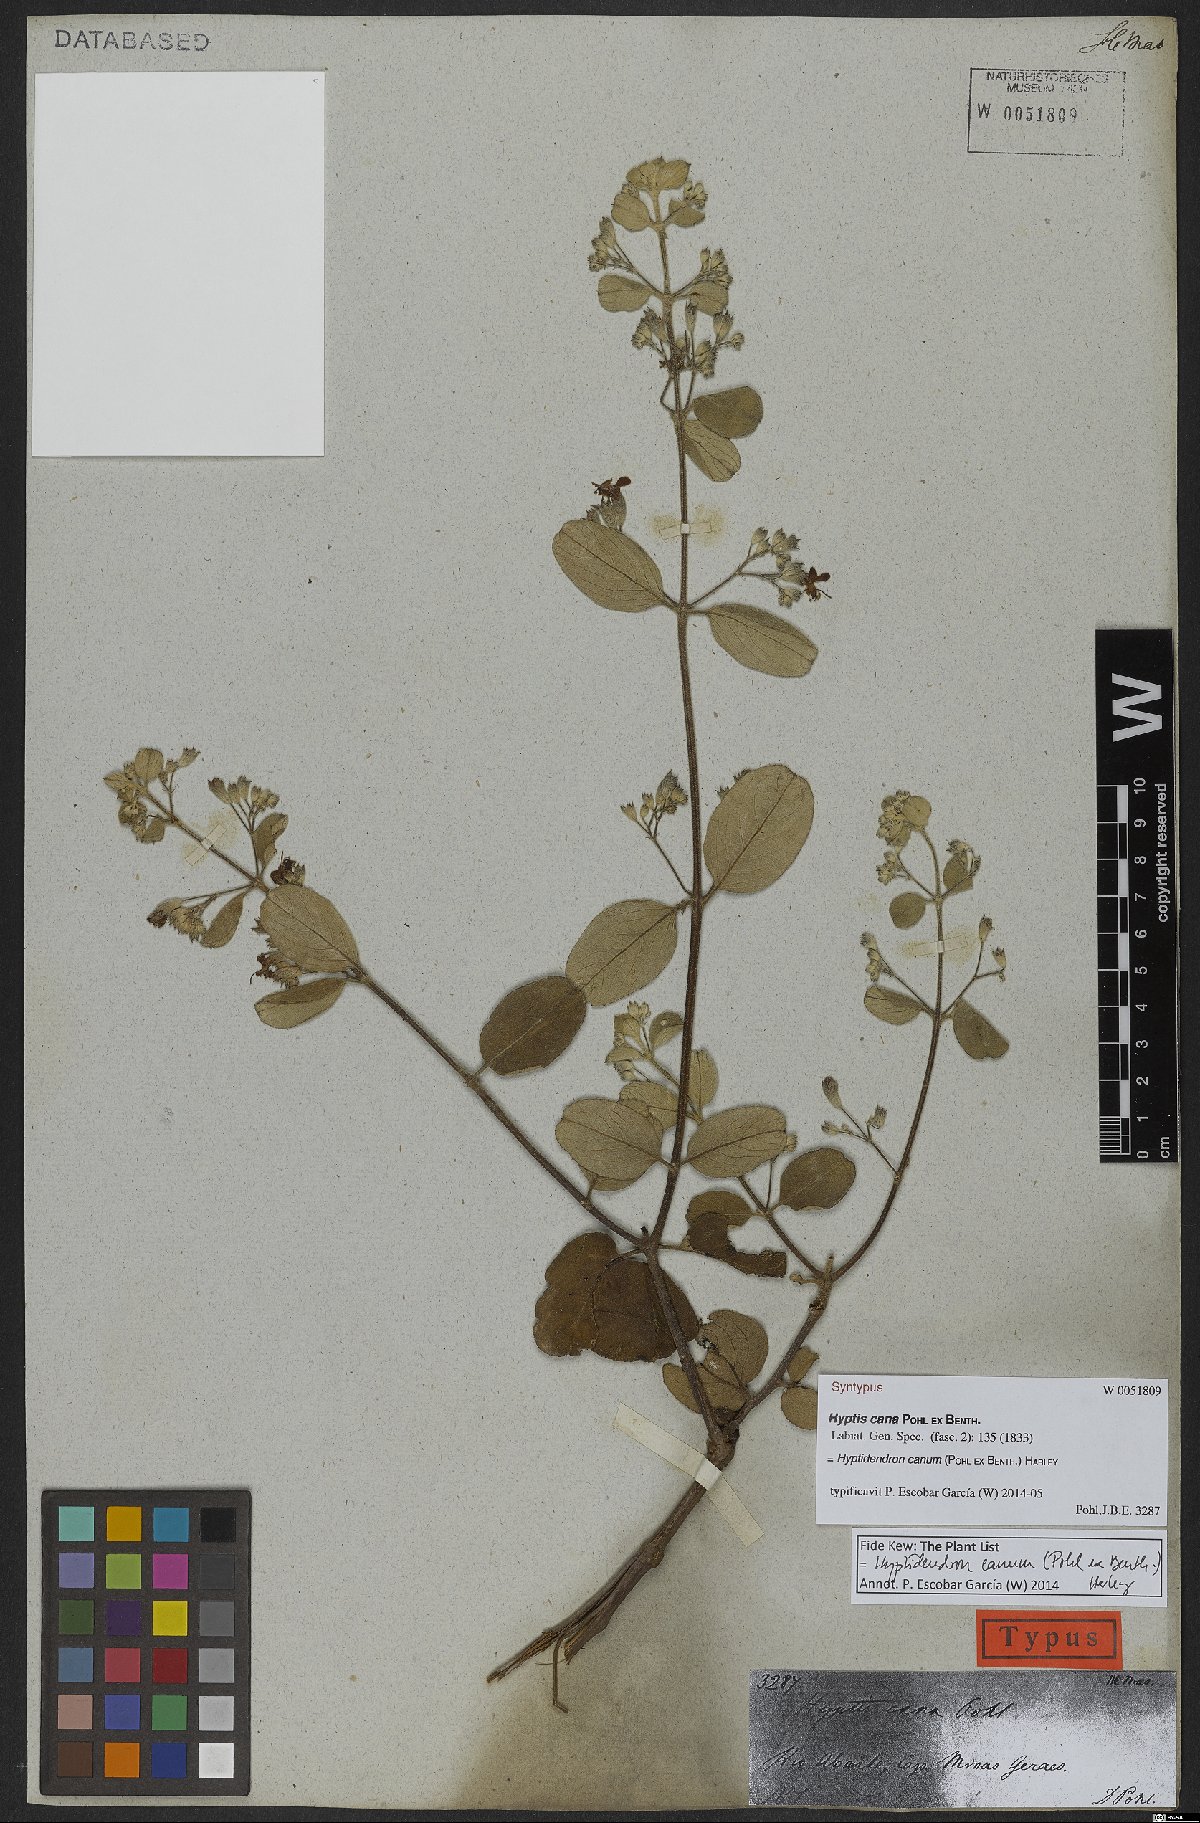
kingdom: Plantae
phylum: Tracheophyta
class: Magnoliopsida
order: Lamiales
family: Lamiaceae
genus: Hyptidendron
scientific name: Hyptidendron canum
